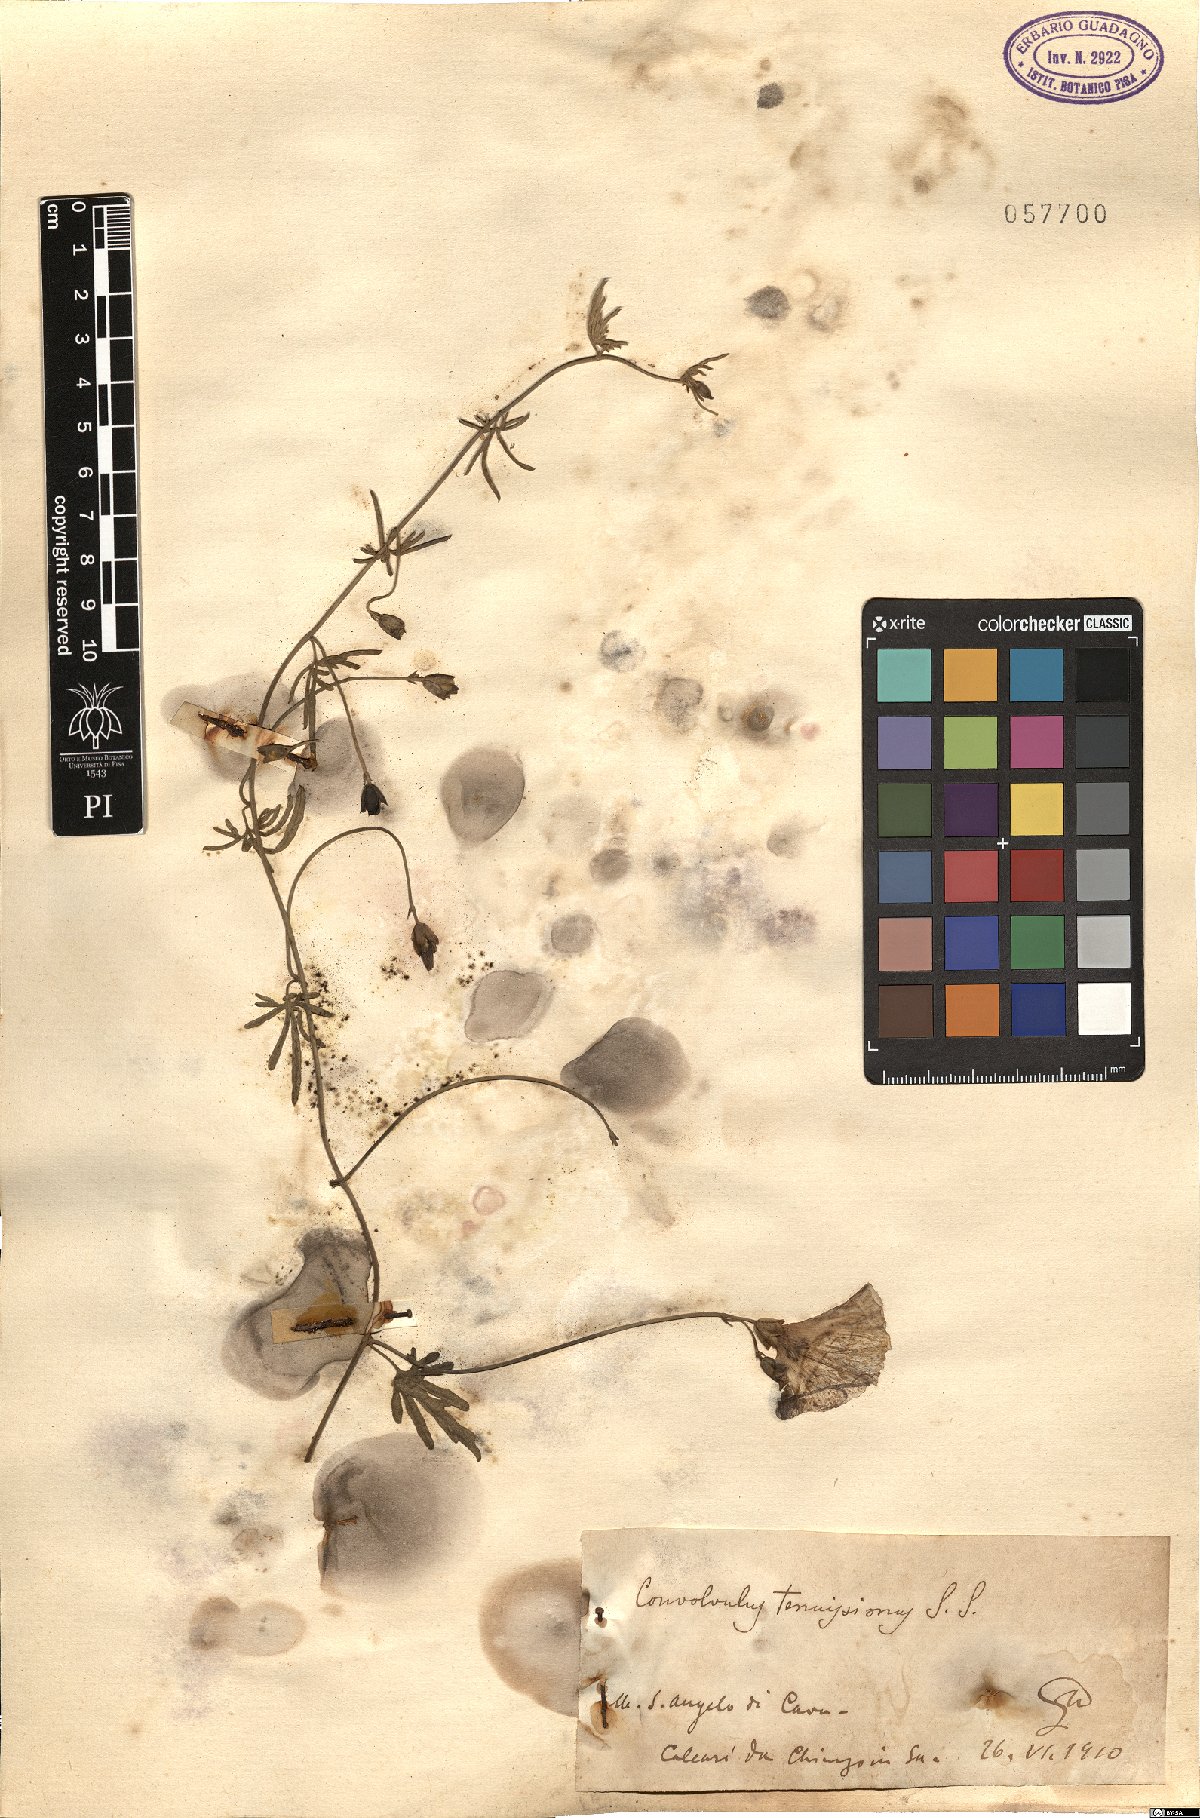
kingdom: Plantae
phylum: Tracheophyta
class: Magnoliopsida
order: Solanales
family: Convolvulaceae
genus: Convolvulus
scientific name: Convolvulus elegantissimus
